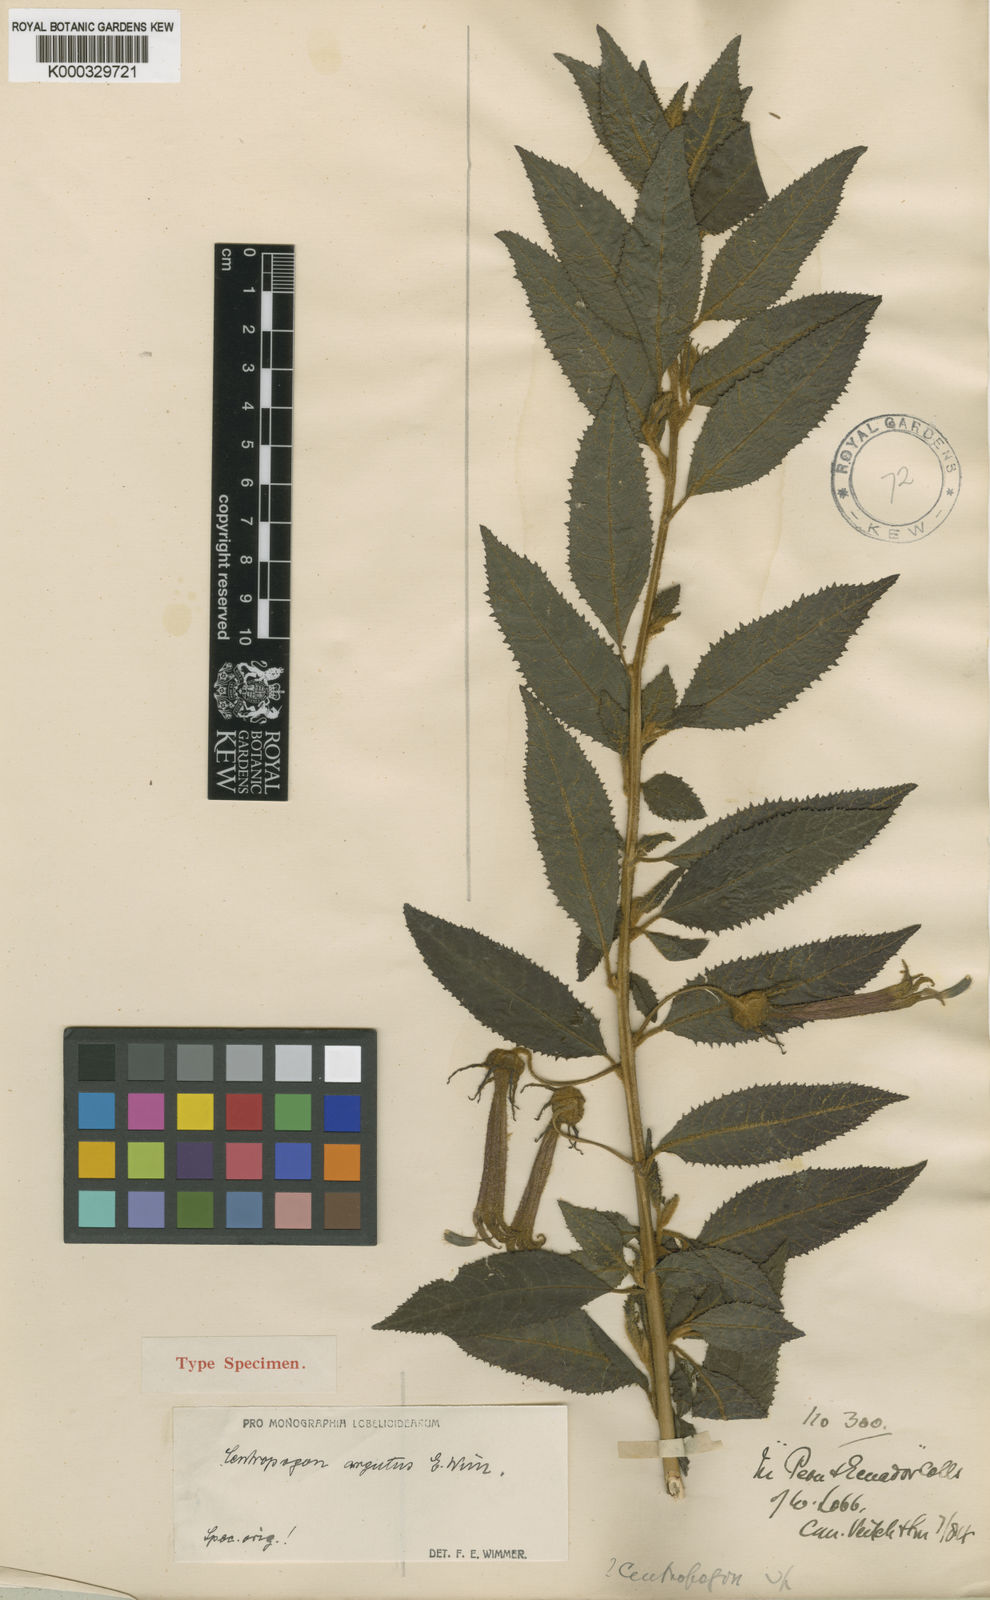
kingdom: Plantae
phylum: Tracheophyta
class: Magnoliopsida
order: Asterales
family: Campanulaceae
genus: Centropogon
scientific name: Centropogon argutus
